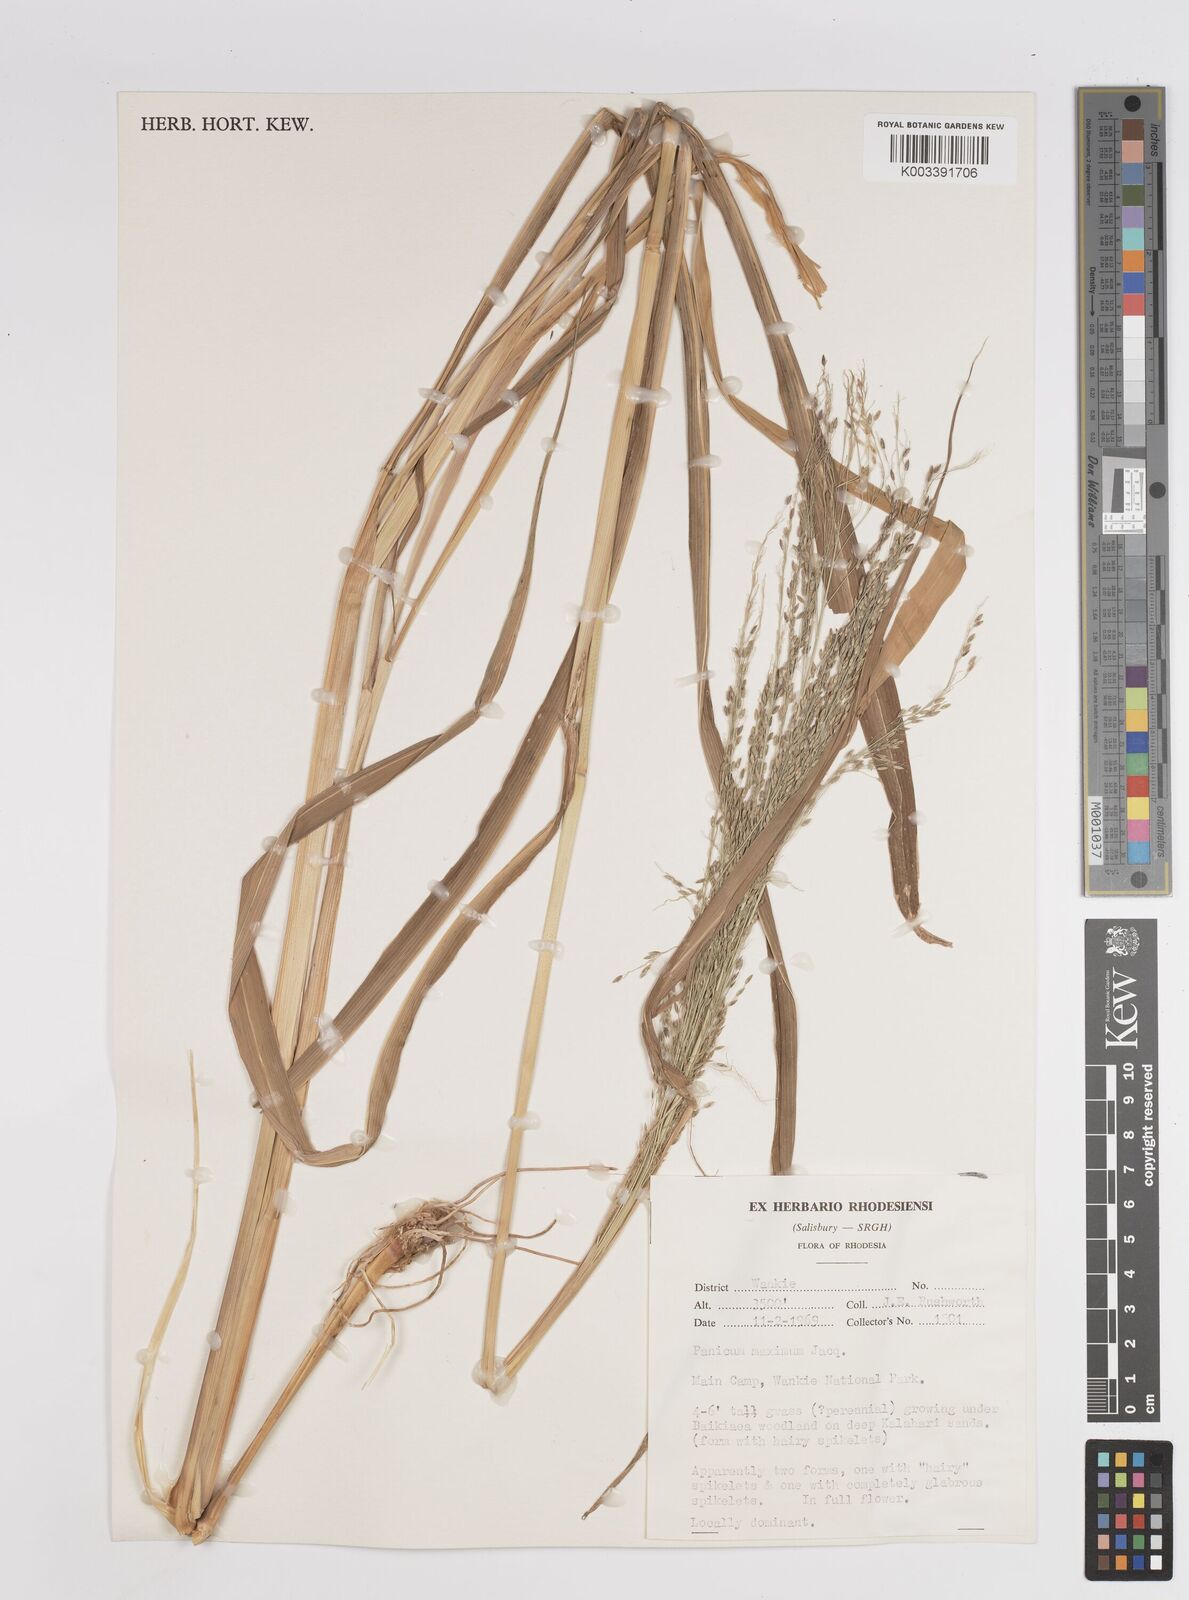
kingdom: Plantae
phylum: Tracheophyta
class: Liliopsida
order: Poales
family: Poaceae
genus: Megathyrsus
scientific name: Megathyrsus maximus
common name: Guineagrass
